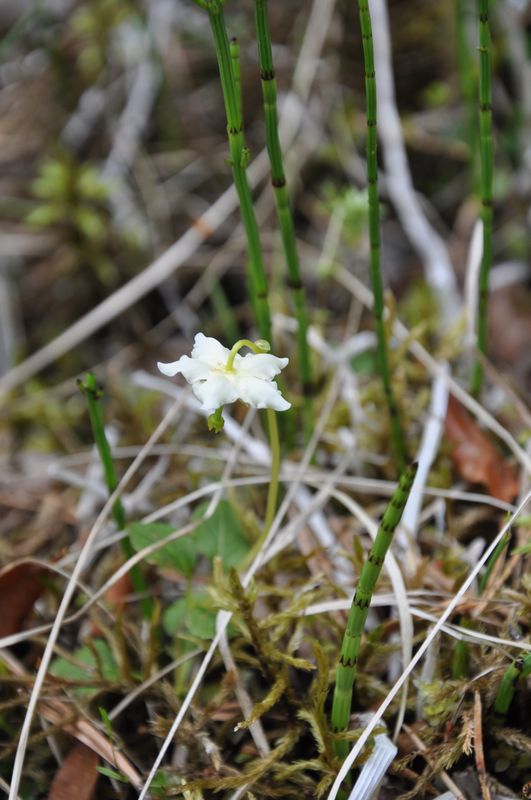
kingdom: Plantae
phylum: Tracheophyta
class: Magnoliopsida
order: Ericales
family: Ericaceae
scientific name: Ericaceae
